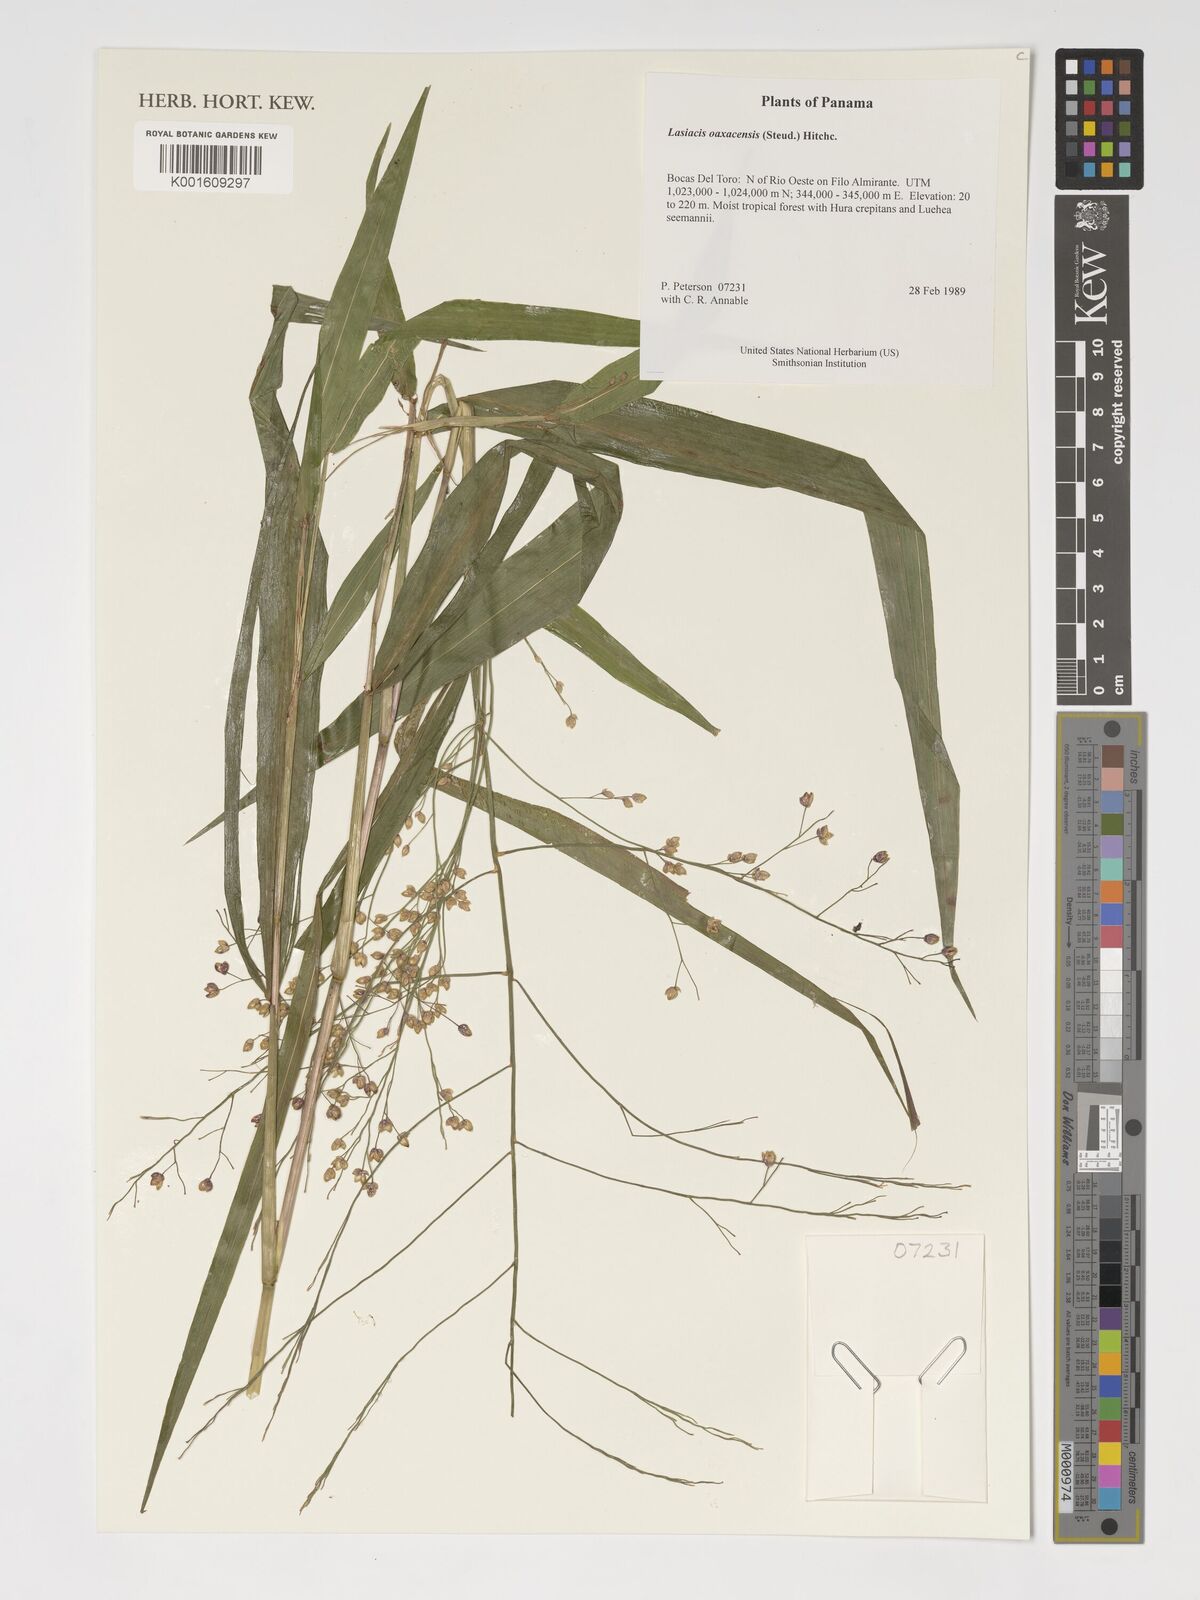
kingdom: Plantae
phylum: Tracheophyta
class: Liliopsida
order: Poales
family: Poaceae
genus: Lasiacis
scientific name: Lasiacis oaxacensis
